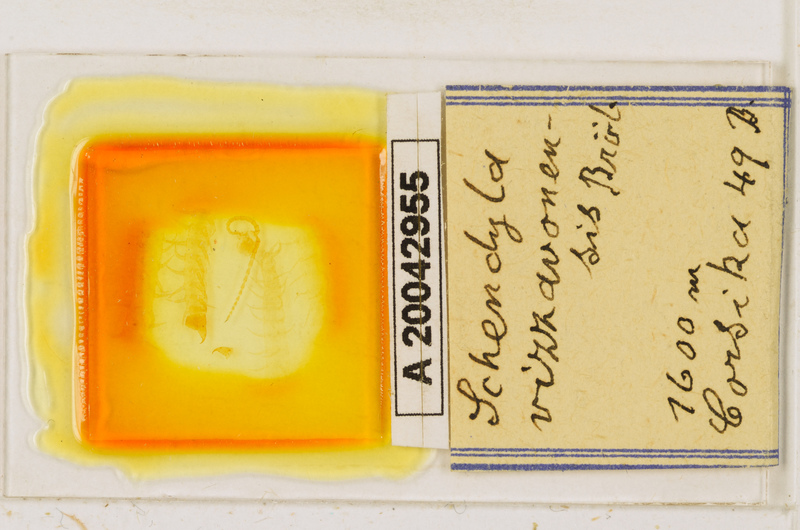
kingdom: Animalia
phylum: Arthropoda
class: Chilopoda
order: Geophilomorpha
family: Schendylidae
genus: Schendyla
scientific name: Schendyla vizzavonae
